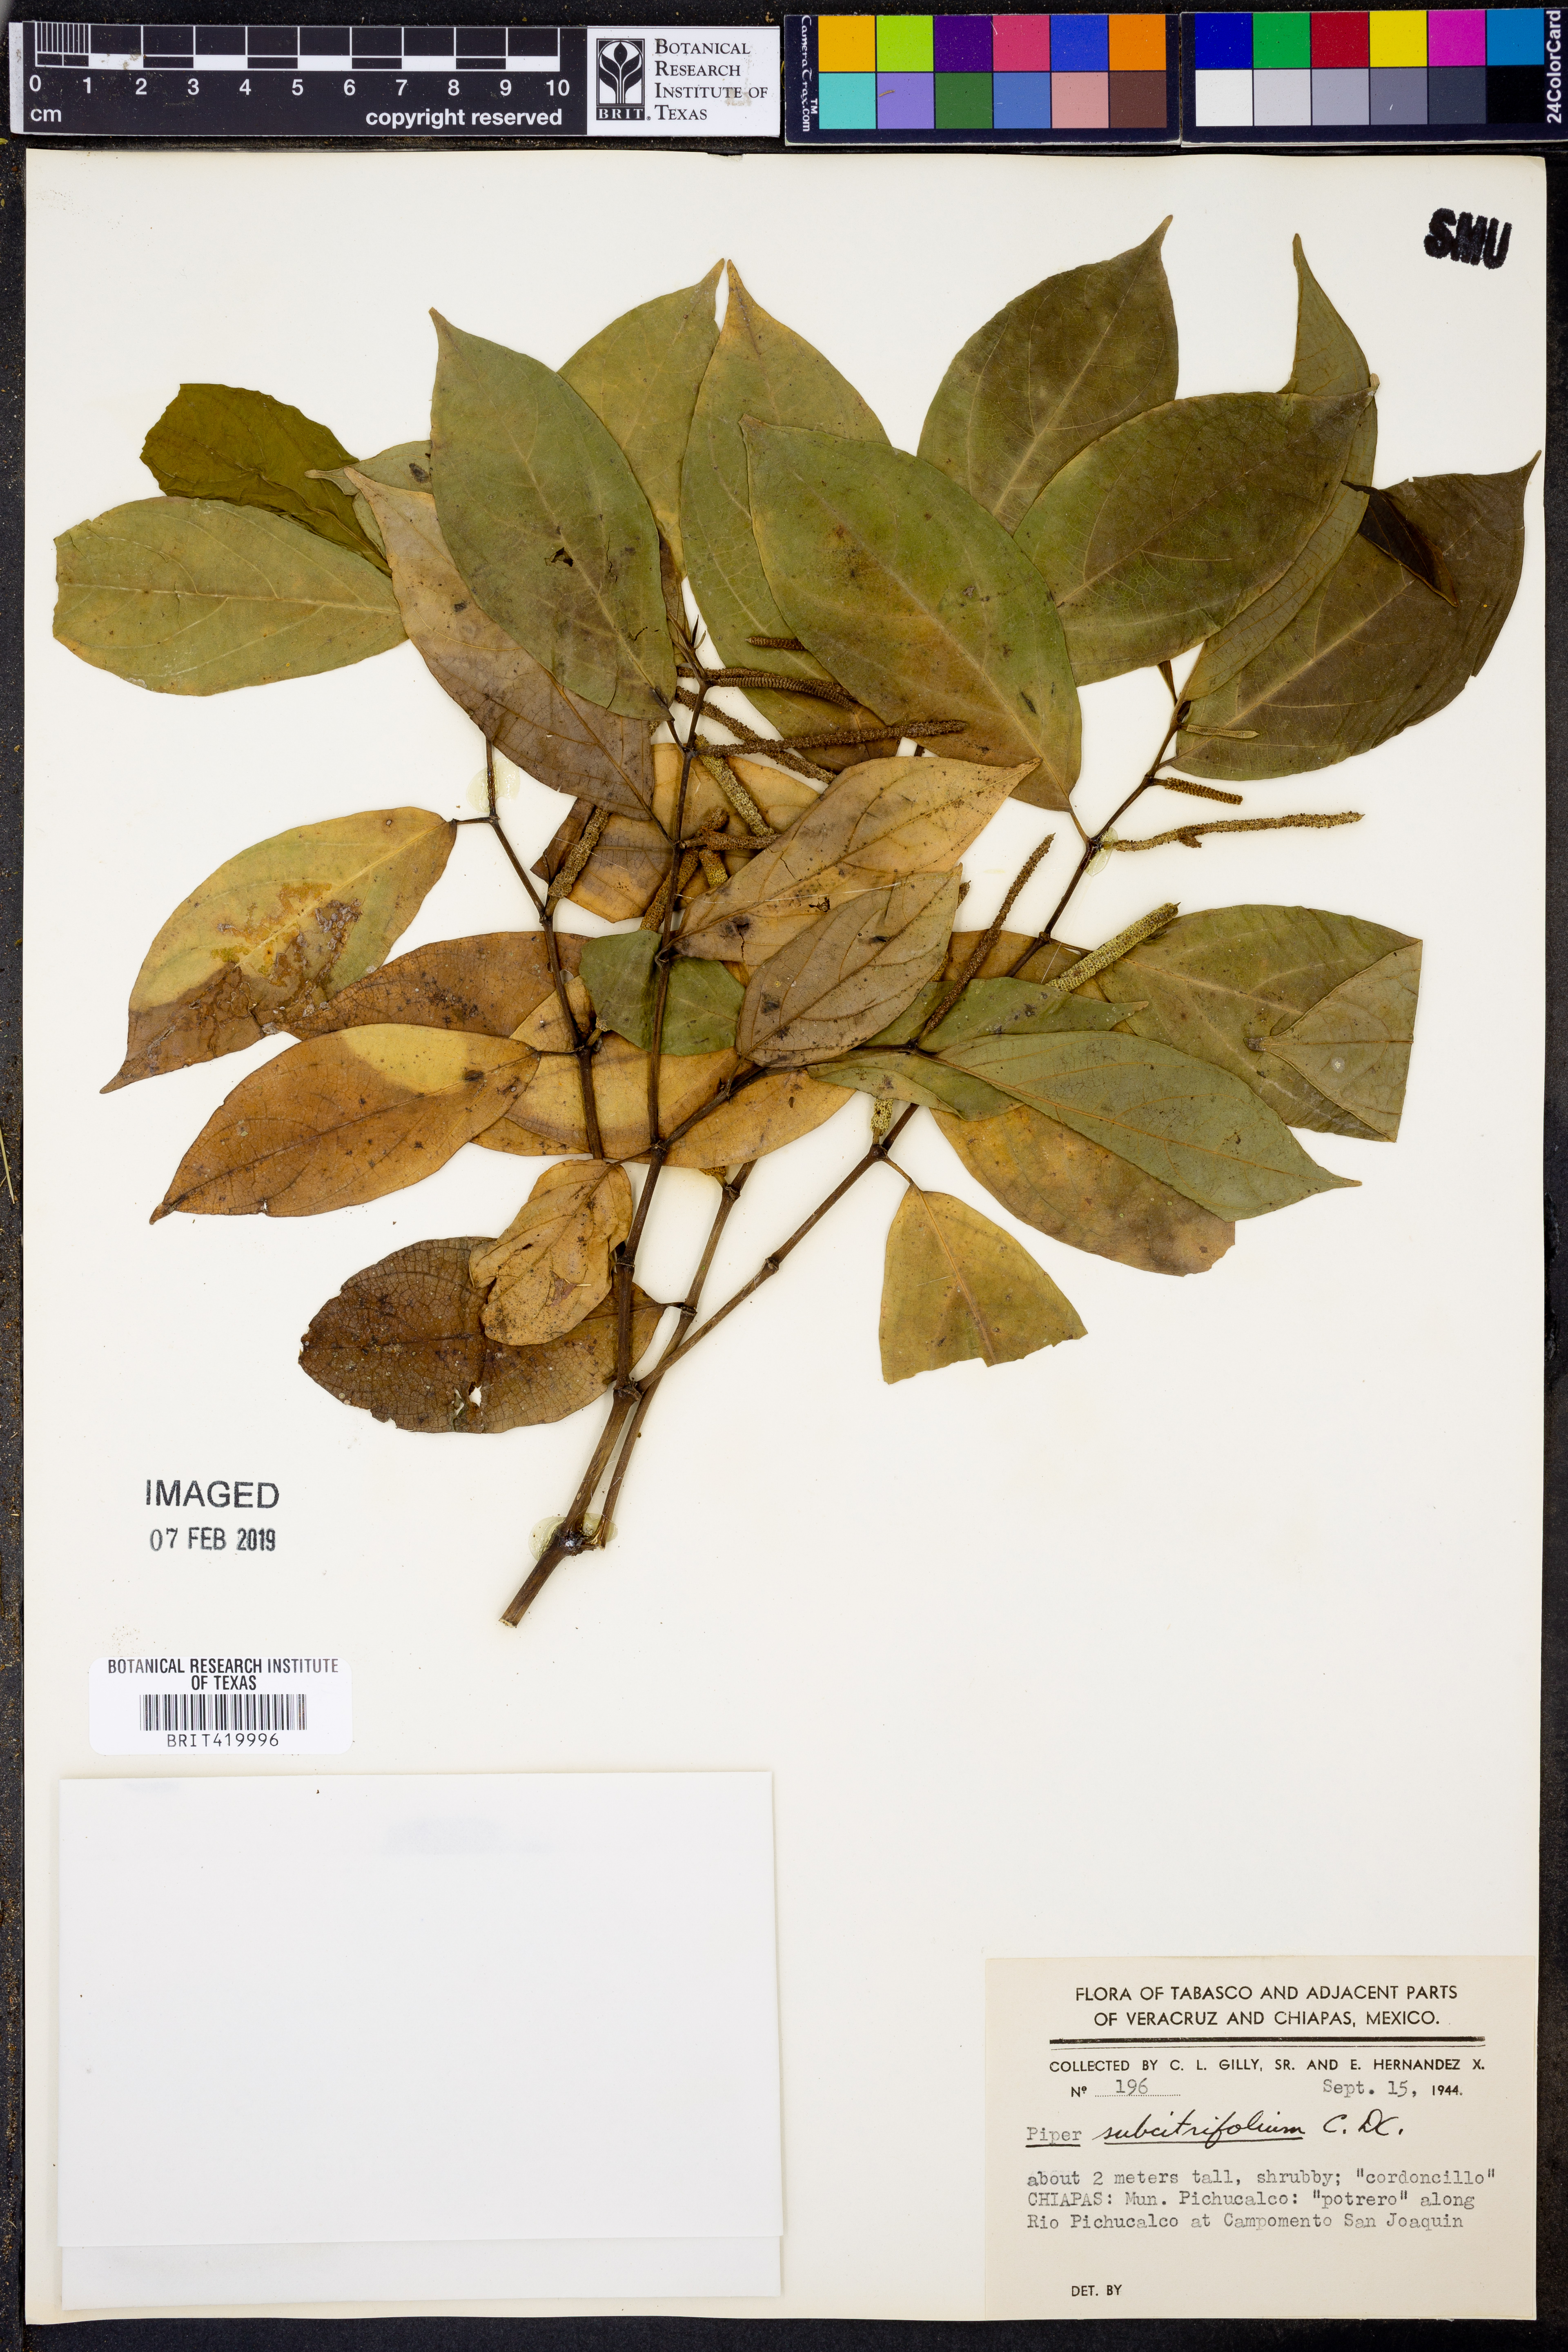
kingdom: Plantae
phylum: Tracheophyta
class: Magnoliopsida
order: Piperales
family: Piperaceae
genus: Piper
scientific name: Piper kerberi
